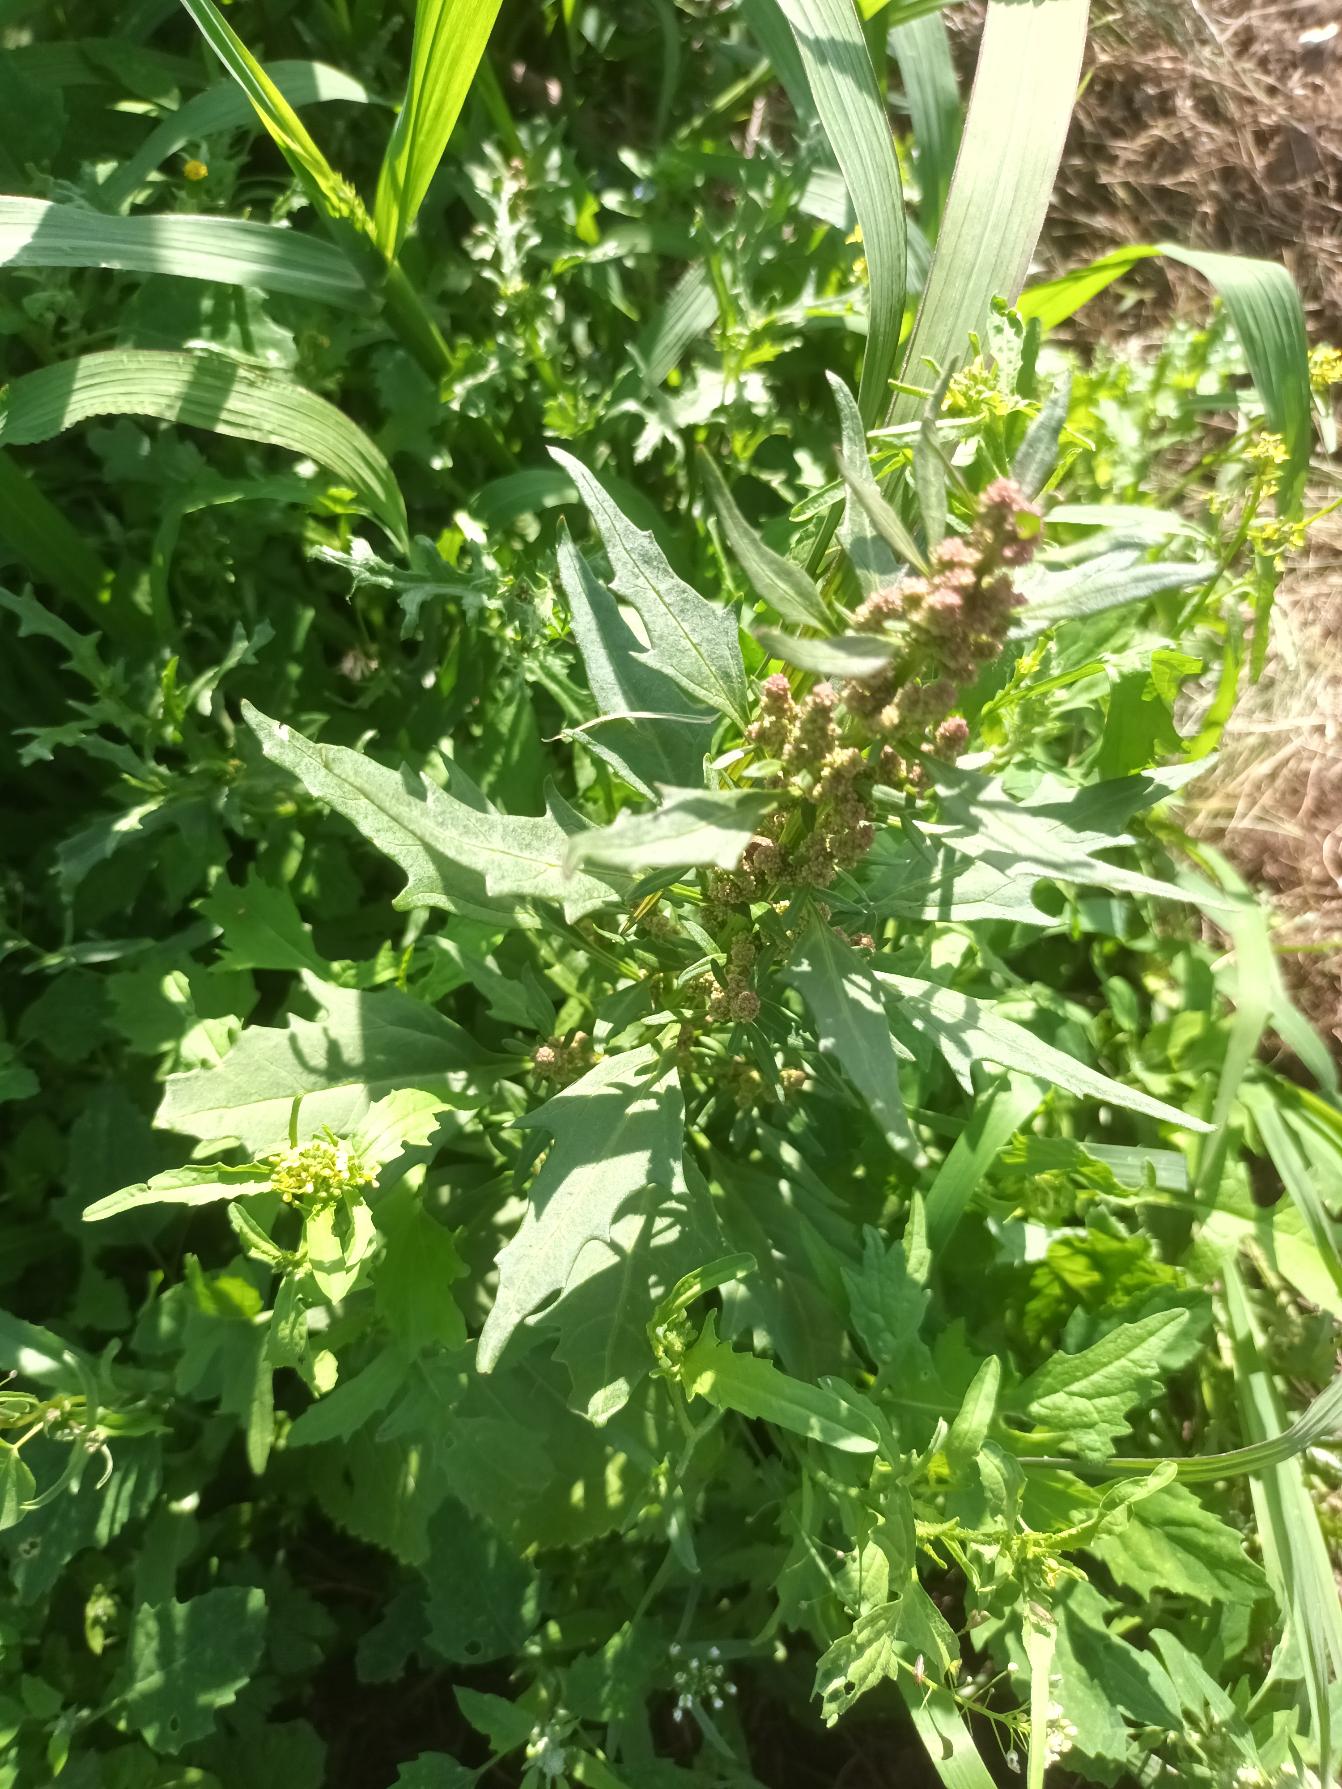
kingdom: Plantae
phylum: Tracheophyta
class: Magnoliopsida
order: Caryophyllales
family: Amaranthaceae
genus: Oxybasis
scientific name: Oxybasis rubra
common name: Rød gåsefod
